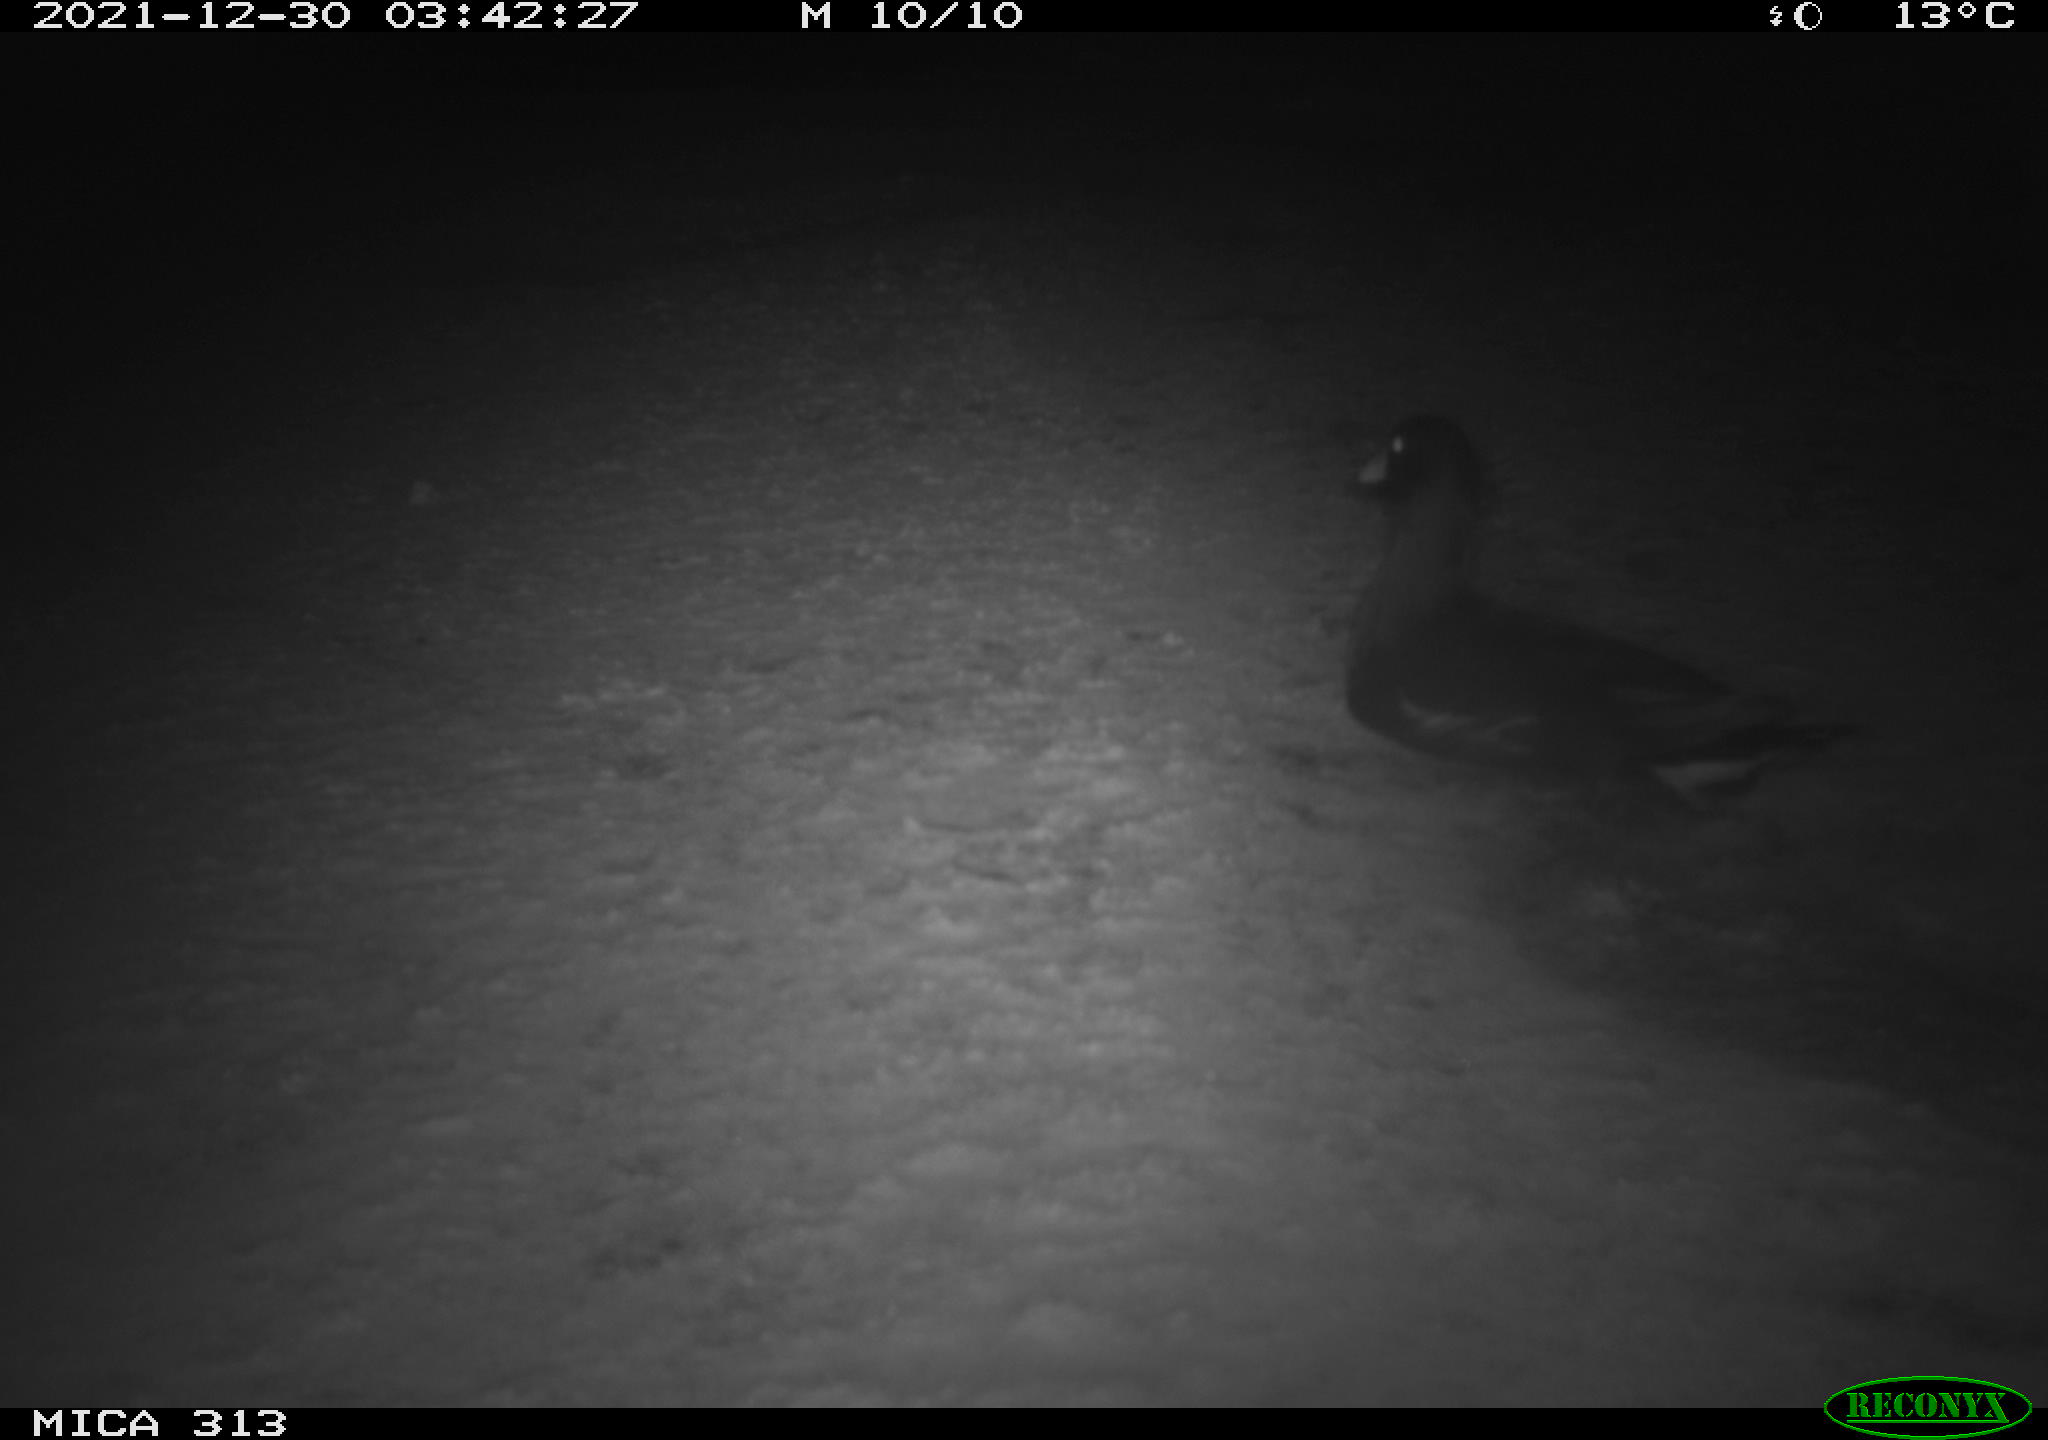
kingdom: Animalia
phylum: Chordata
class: Aves
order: Gruiformes
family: Rallidae
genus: Fulica
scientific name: Fulica atra
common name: Eurasian coot
